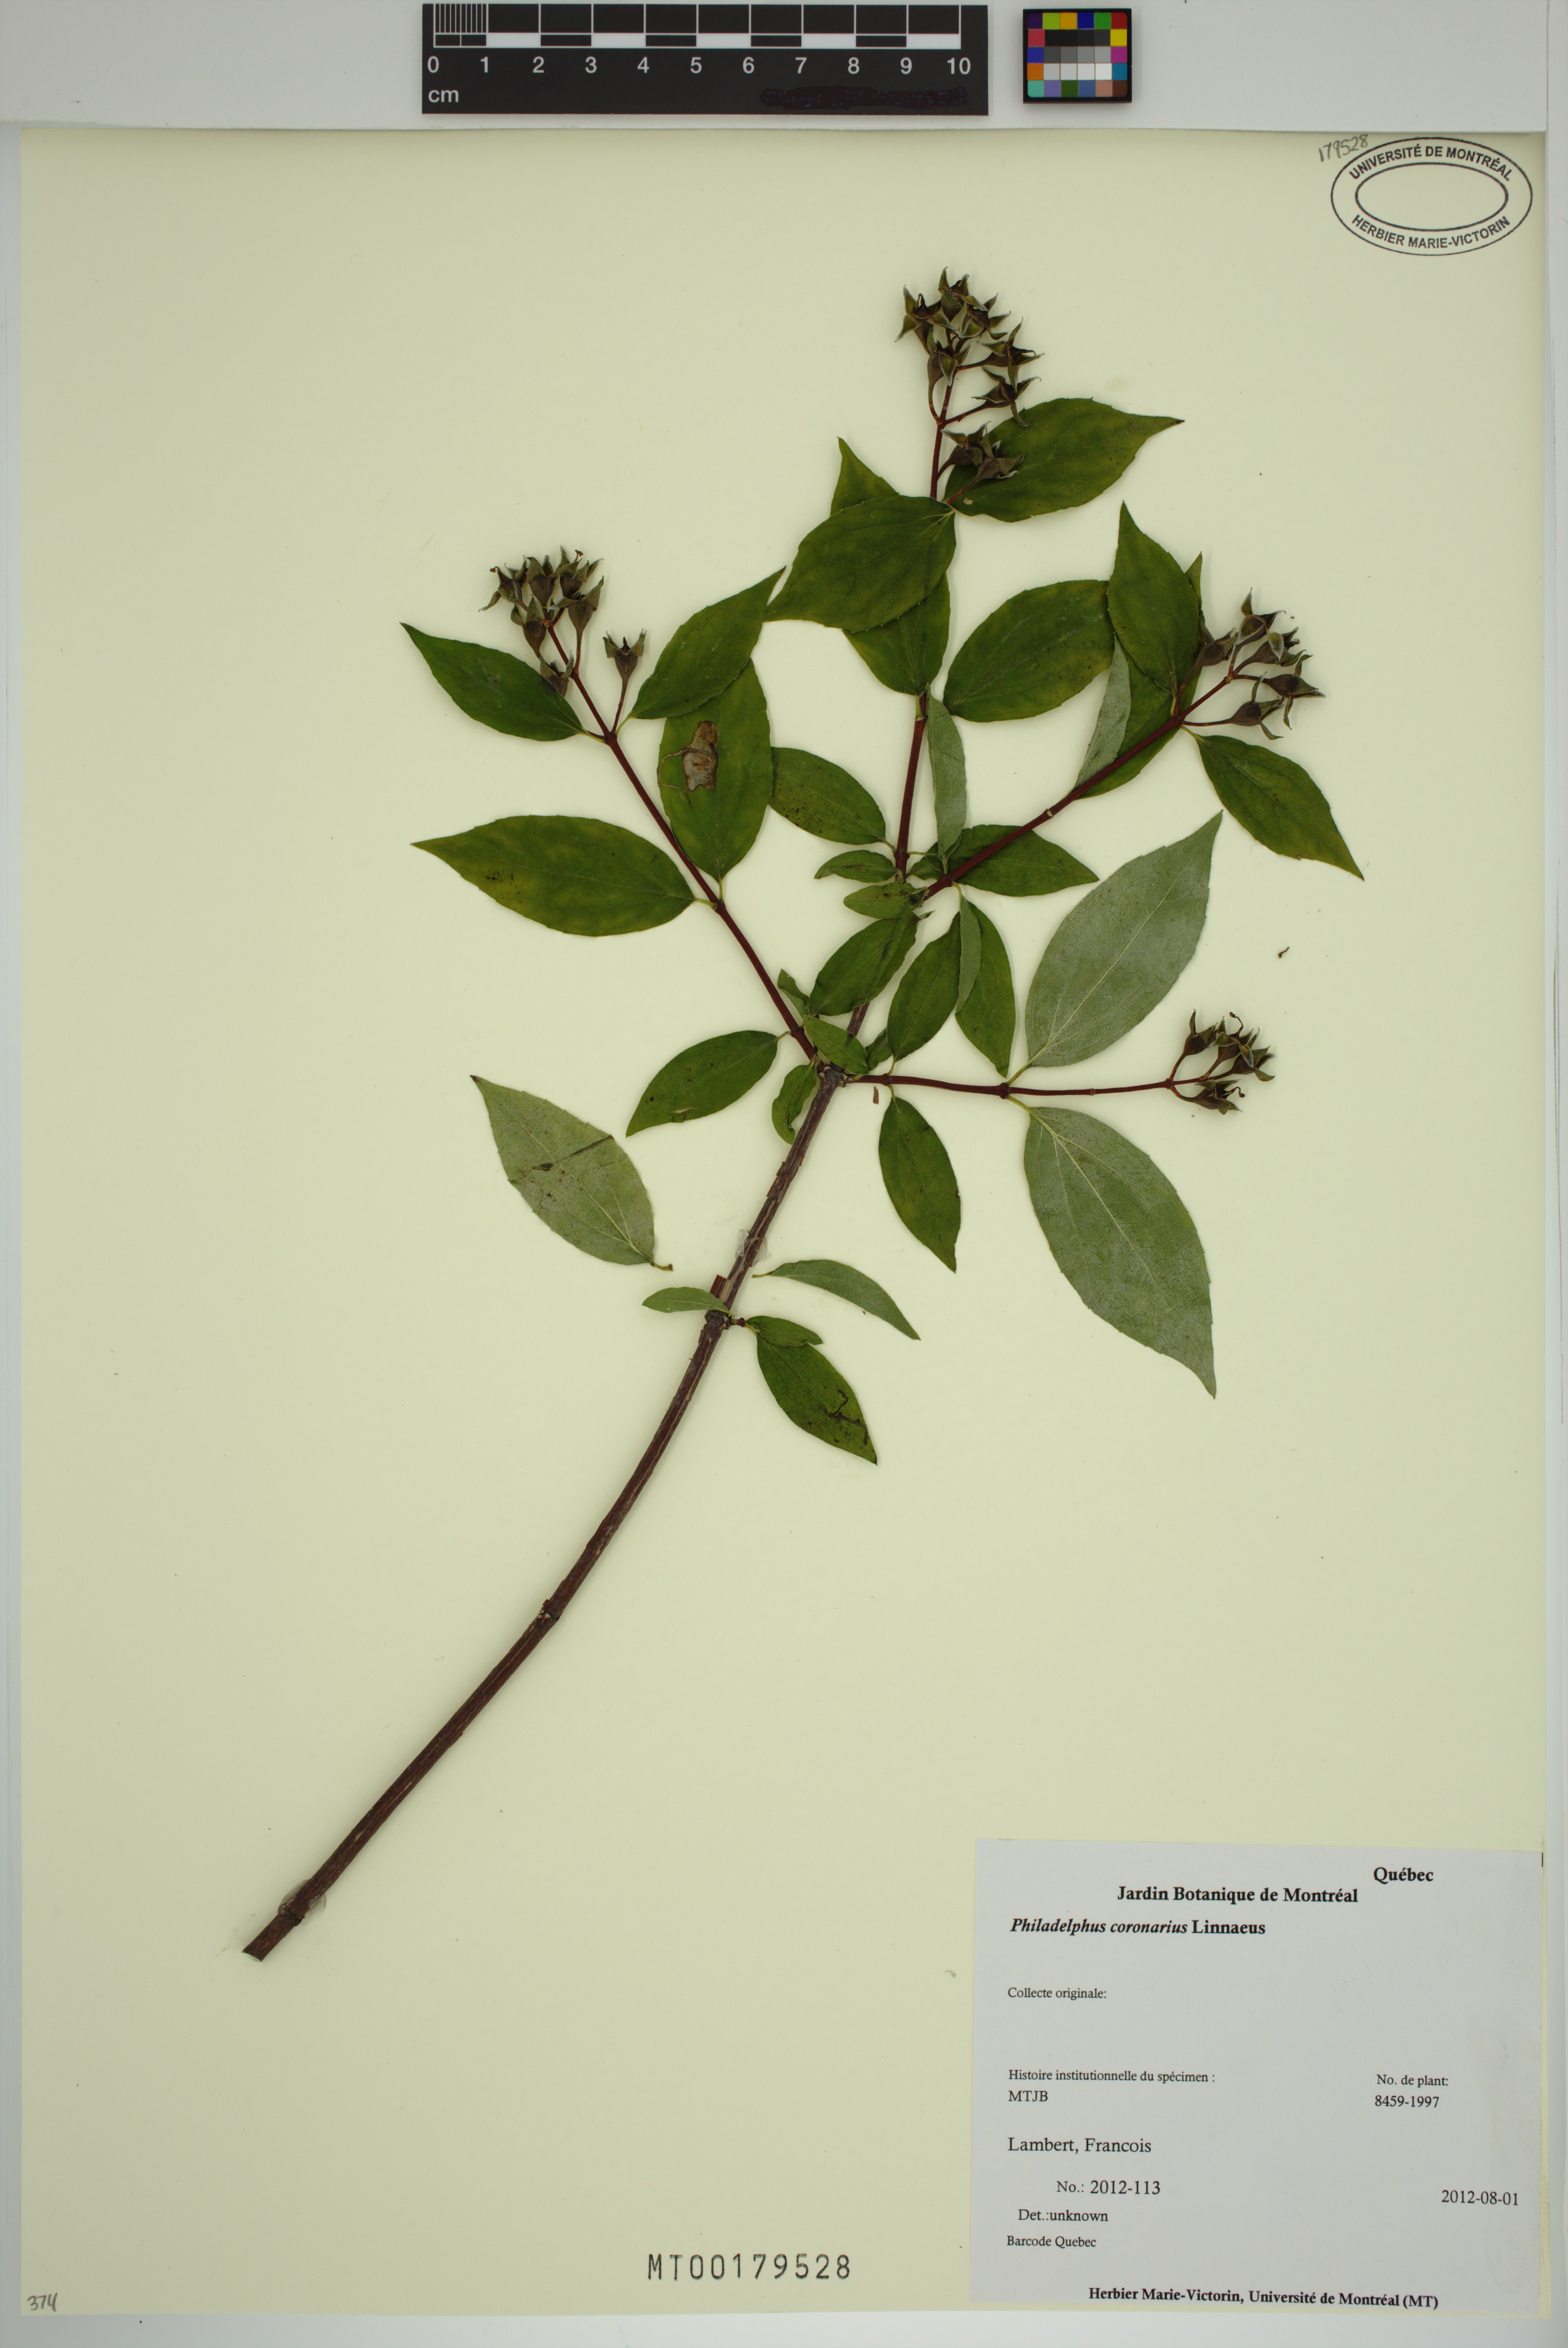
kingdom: Plantae
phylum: Tracheophyta
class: Magnoliopsida
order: Cornales
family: Hydrangeaceae
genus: Philadelphus
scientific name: Philadelphus coronarius
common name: Mock orange
